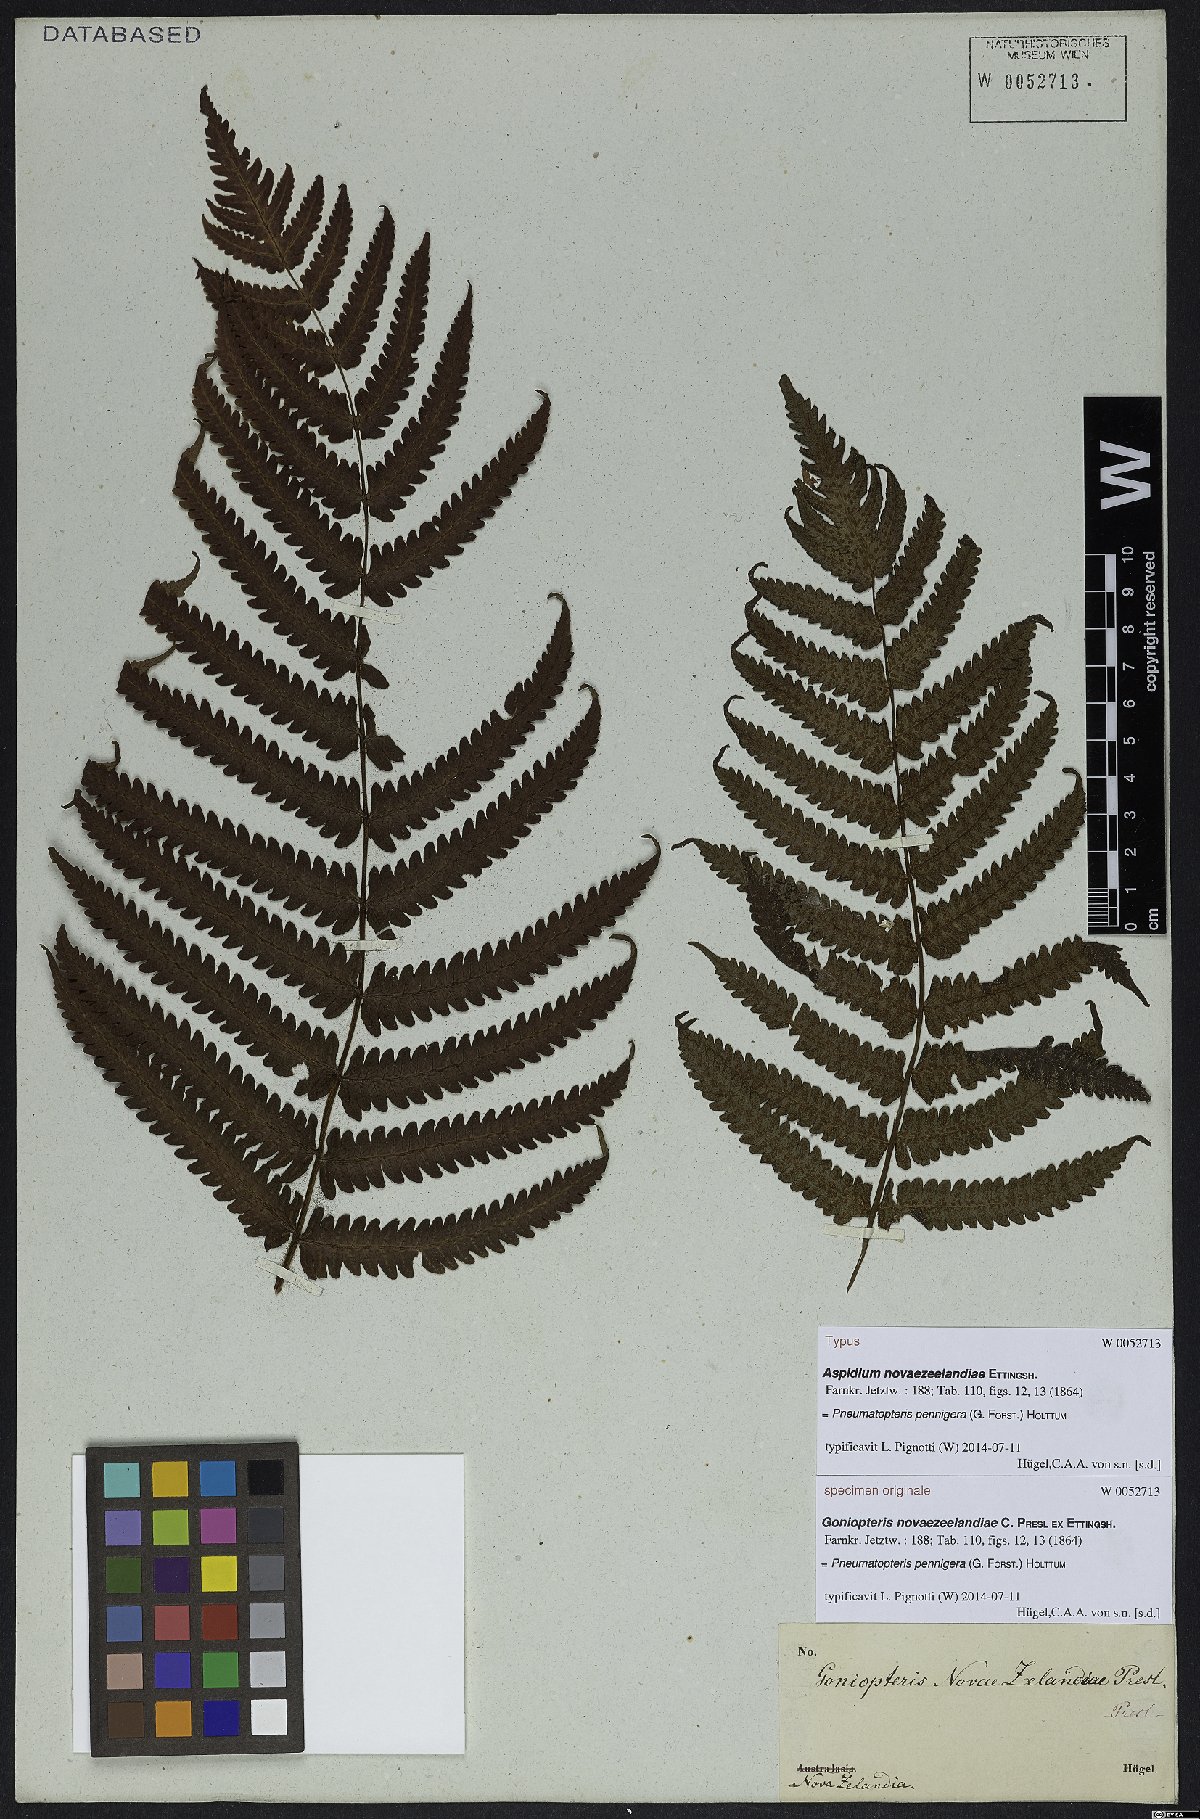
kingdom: Plantae
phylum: Tracheophyta
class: Polypodiopsida
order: Polypodiales
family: Thelypteridaceae
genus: Pakau
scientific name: Pakau pennigera
